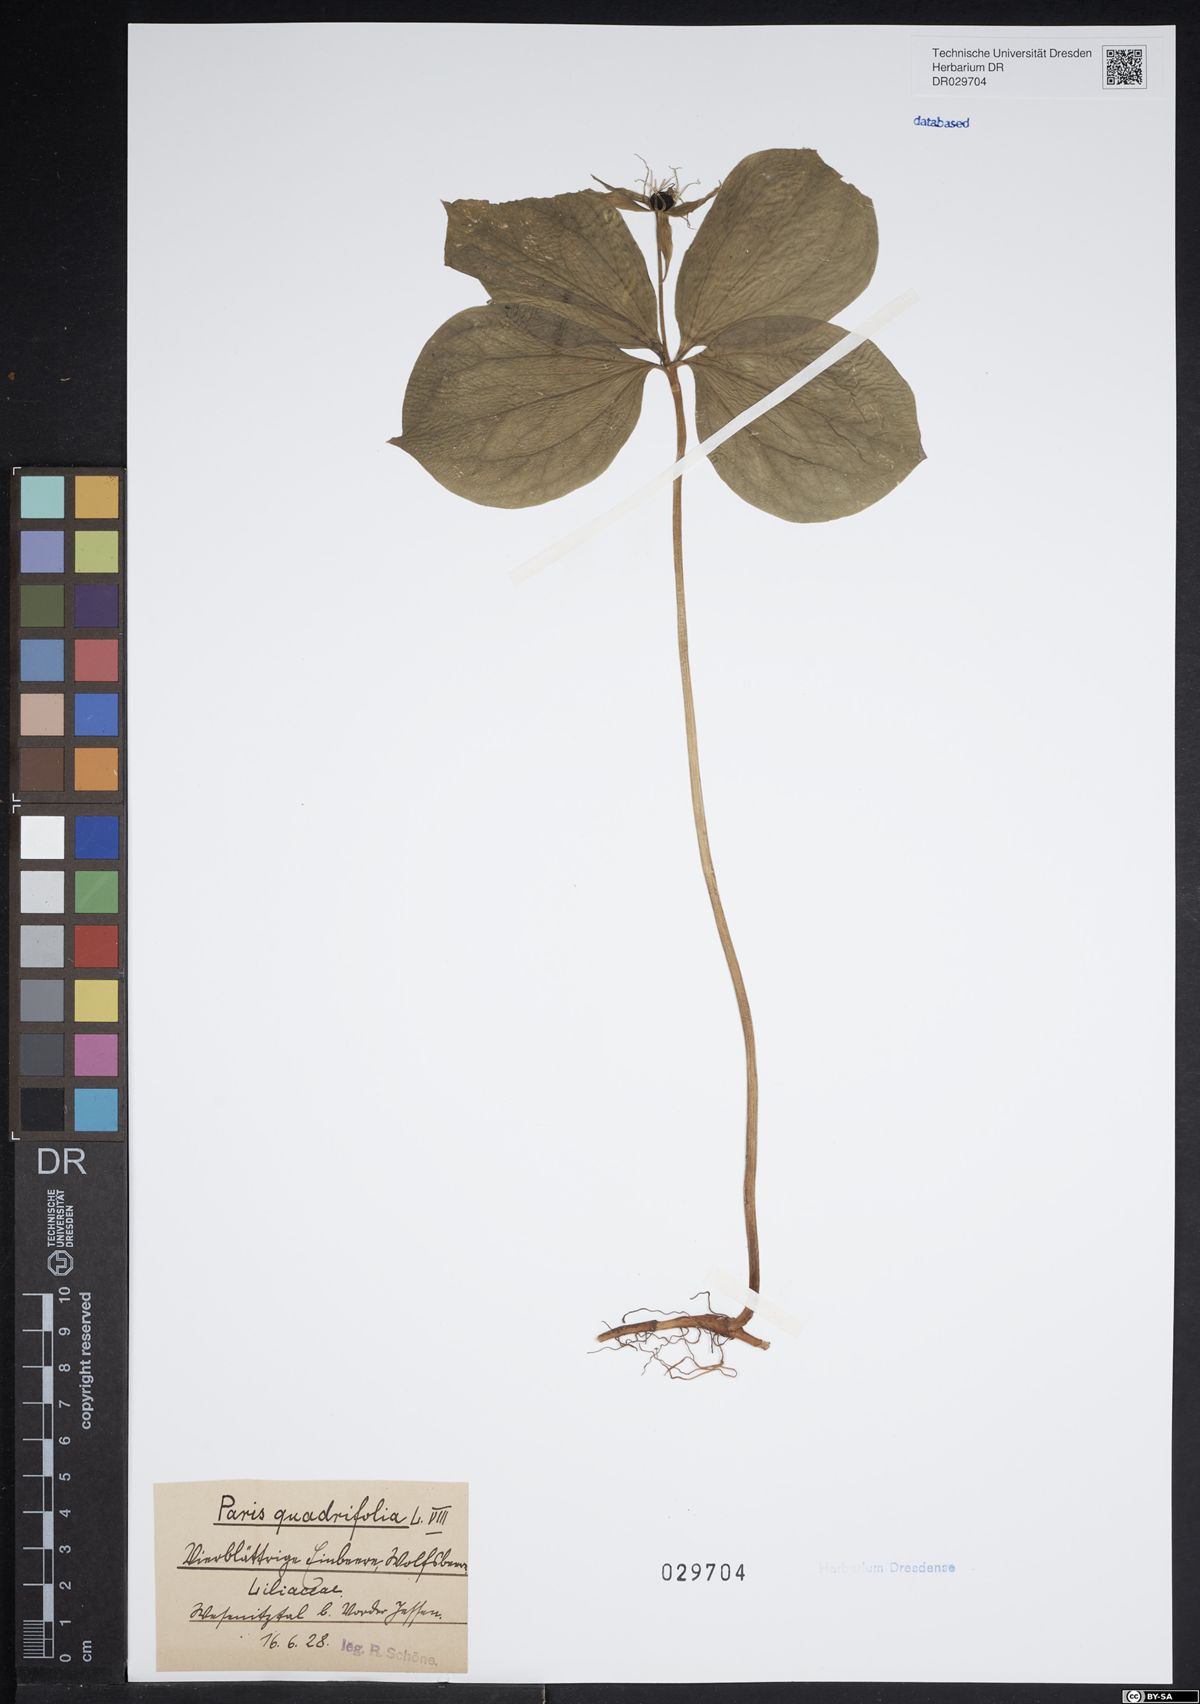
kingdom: Plantae
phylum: Tracheophyta
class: Liliopsida
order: Liliales
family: Melanthiaceae
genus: Paris
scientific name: Paris quadrifolia
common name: Herb-paris
